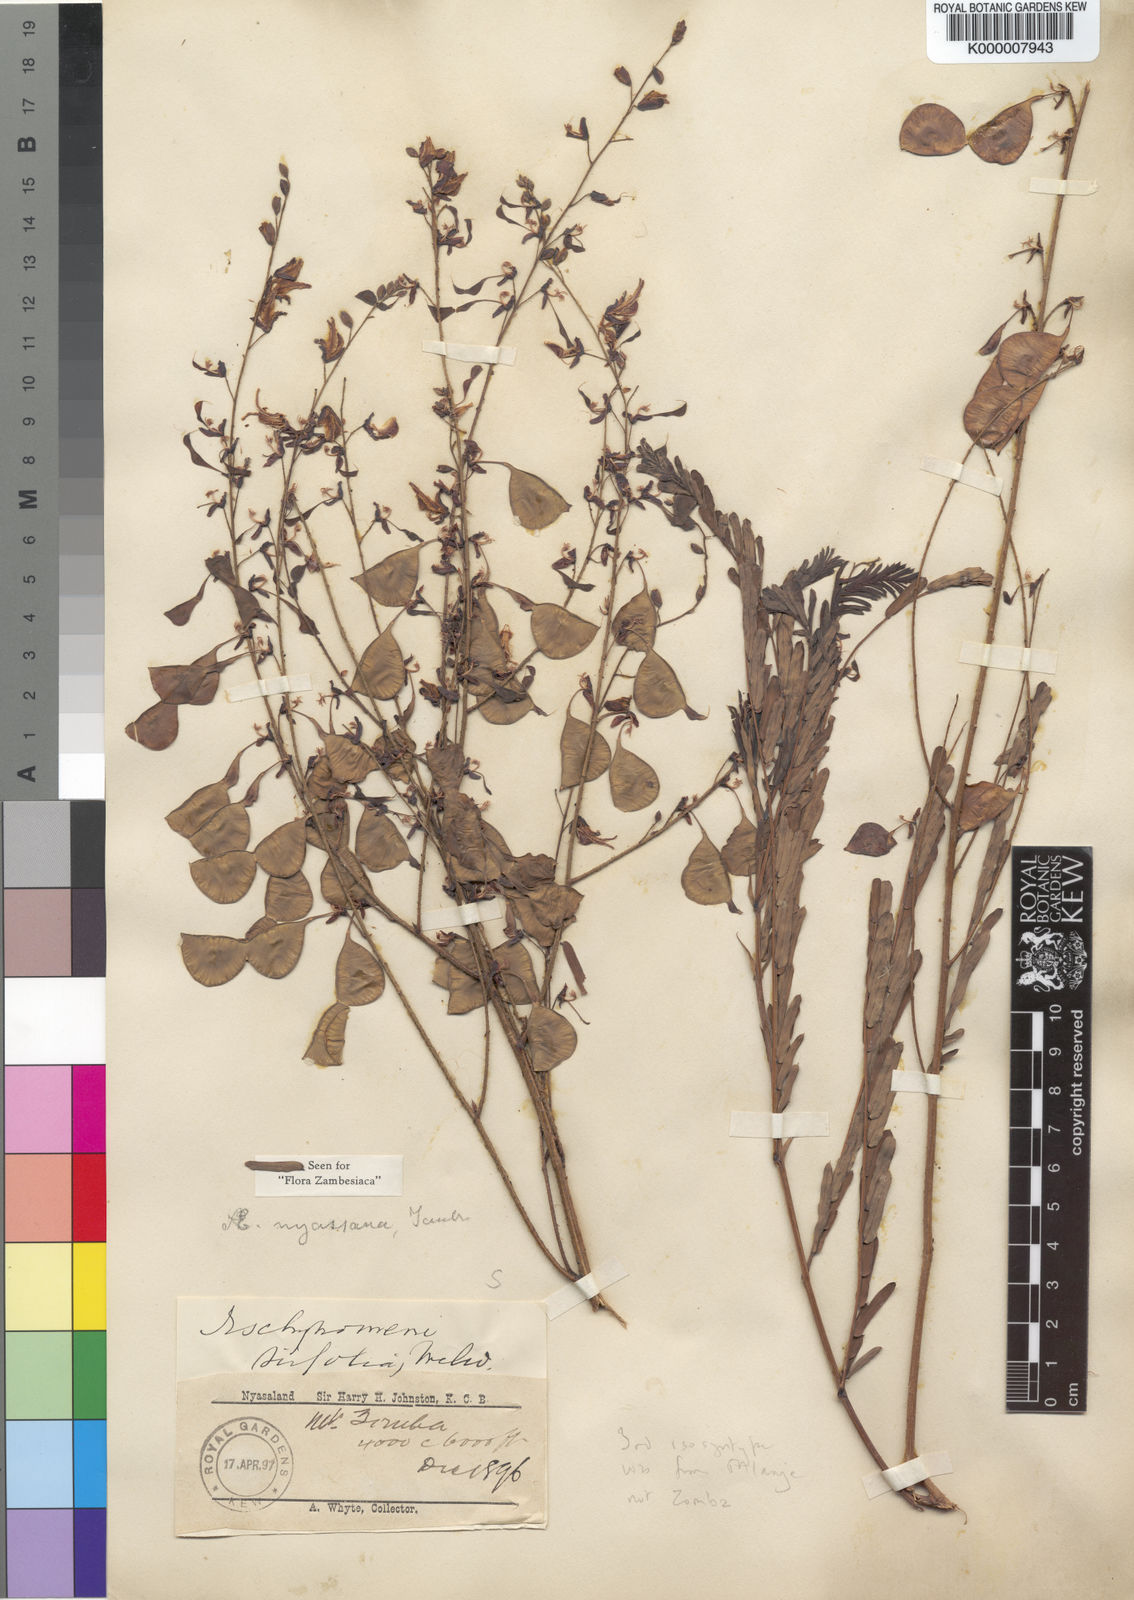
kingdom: Plantae
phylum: Tracheophyta
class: Magnoliopsida
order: Fabales
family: Fabaceae
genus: Aeschynomene
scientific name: Aeschynomene nyassana
